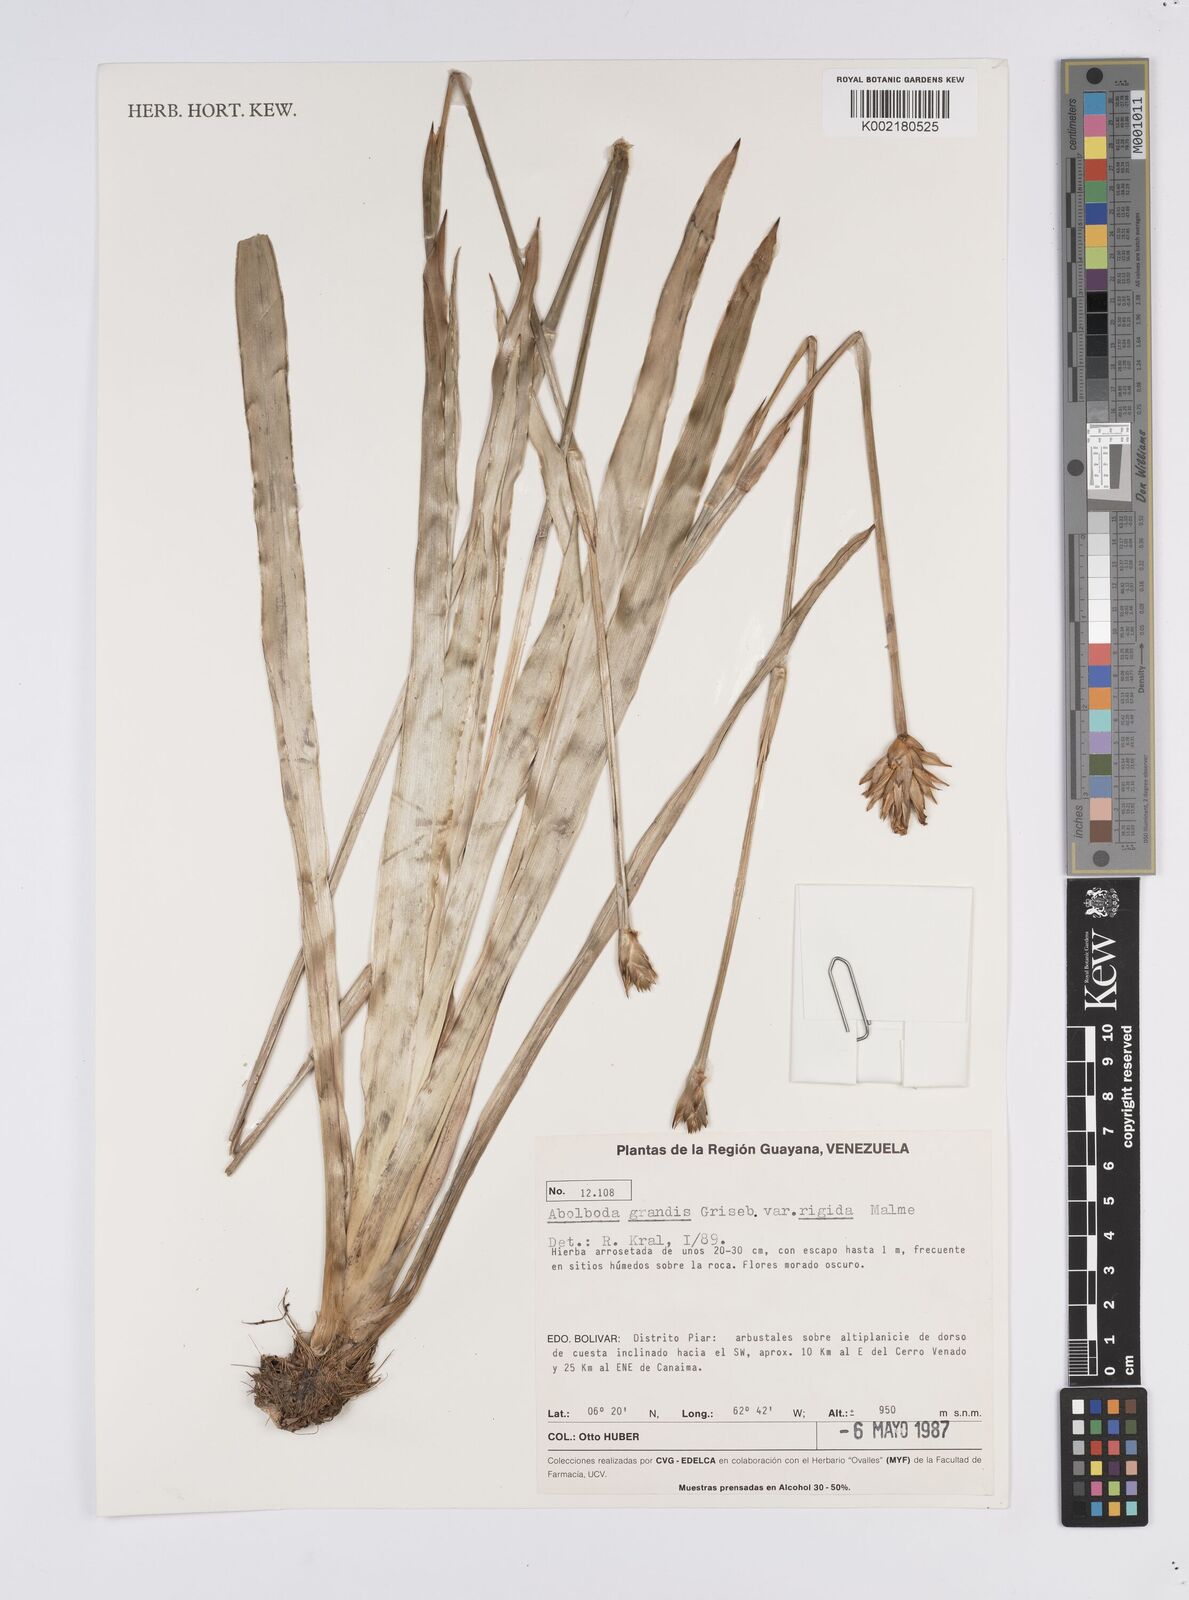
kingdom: Plantae
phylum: Tracheophyta
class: Liliopsida
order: Poales
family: Xyridaceae
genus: Abolboda
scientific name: Abolboda grandis
